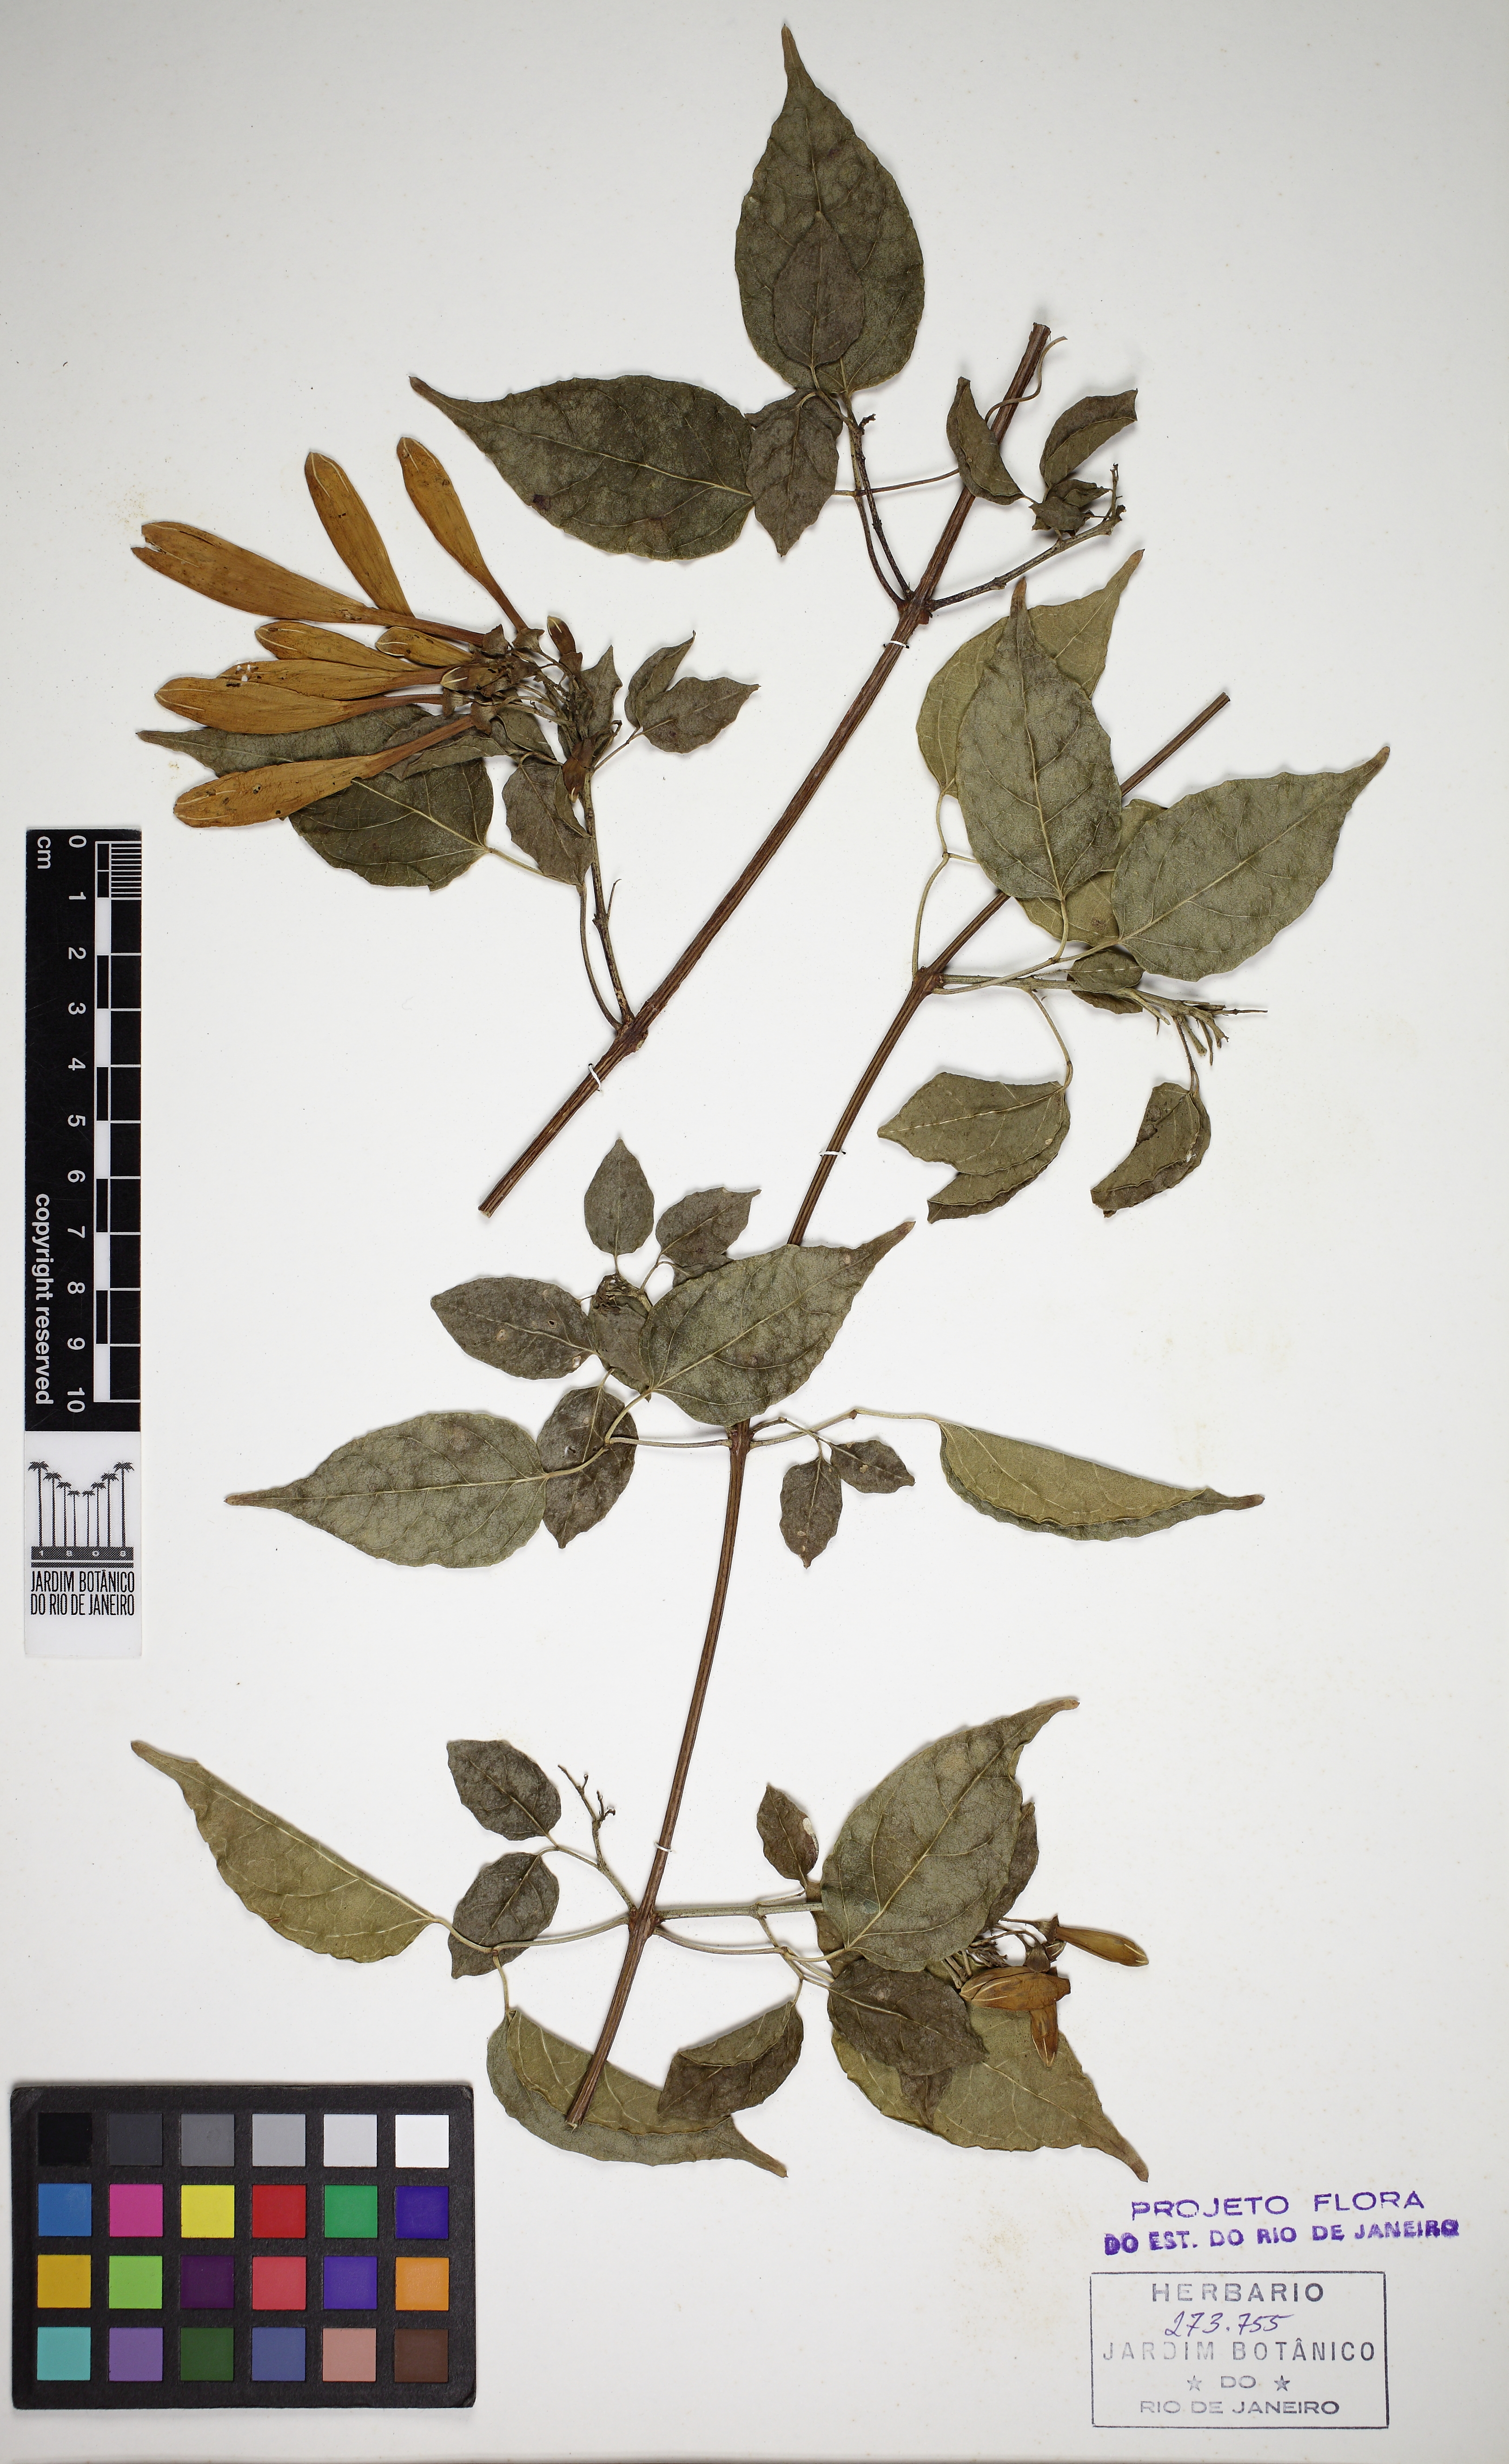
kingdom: Plantae
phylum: Tracheophyta
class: Magnoliopsida
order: Lamiales
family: Bignoniaceae
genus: Pyrostegia
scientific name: Pyrostegia venusta
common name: Flamevine
